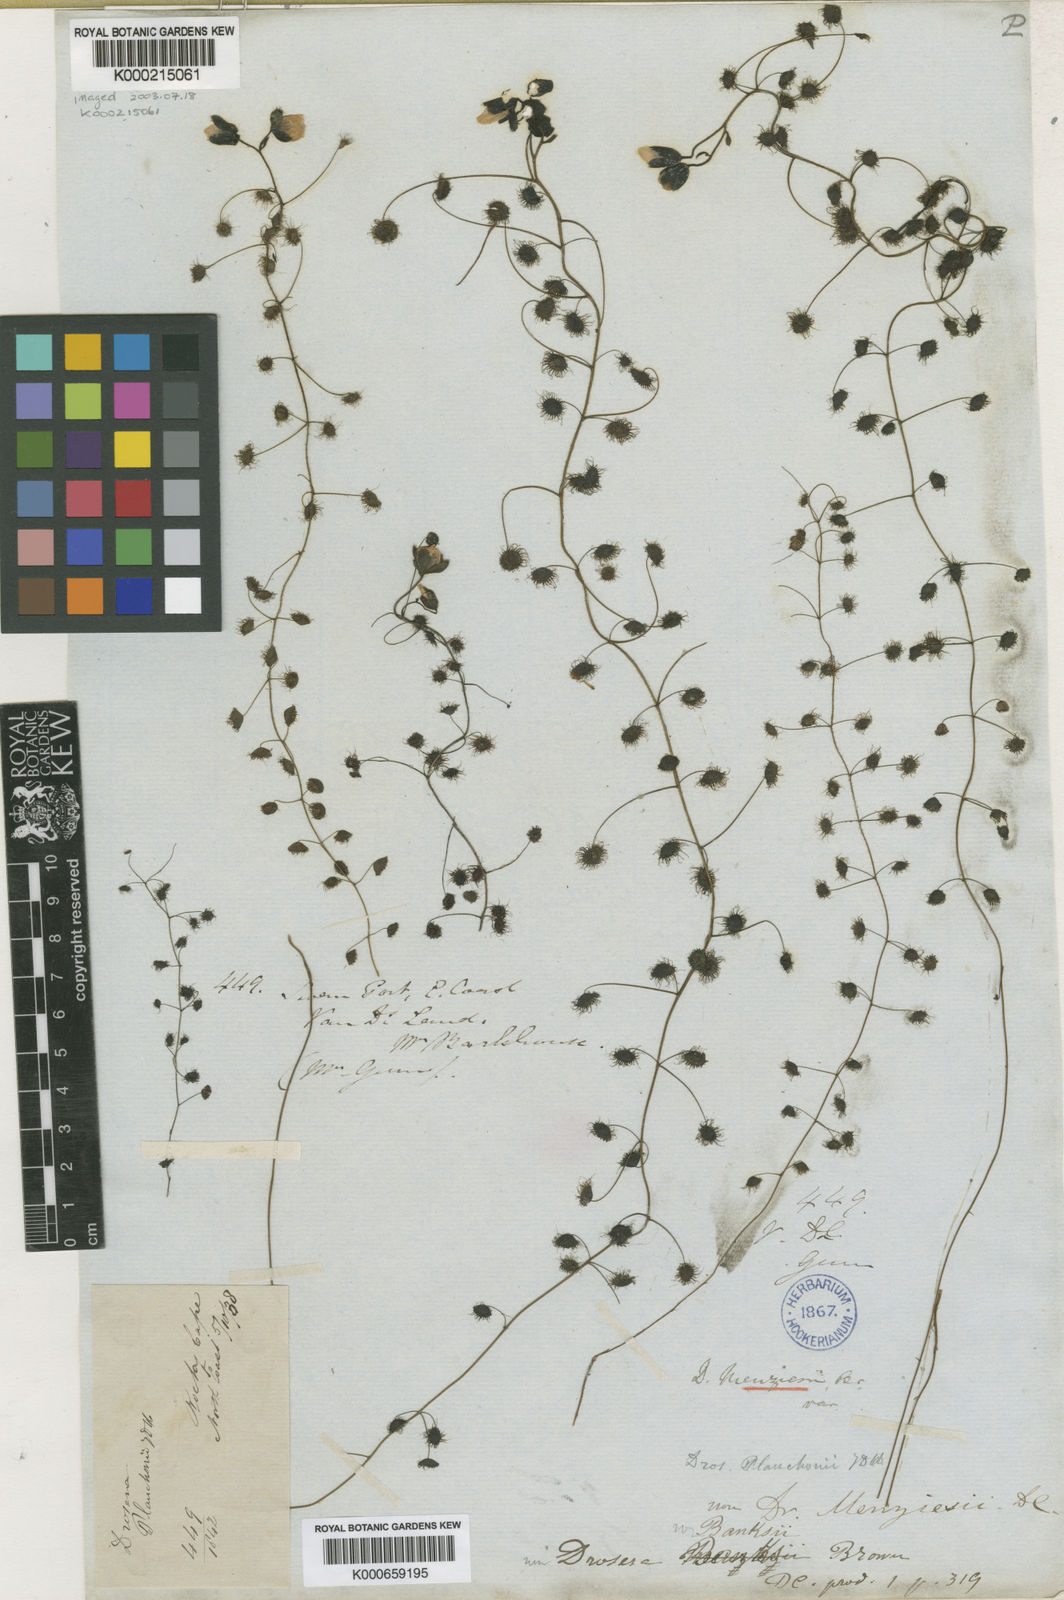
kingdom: Plantae
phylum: Tracheophyta
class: Magnoliopsida
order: Caryophyllales
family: Droseraceae
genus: Drosera
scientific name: Drosera macrantha
